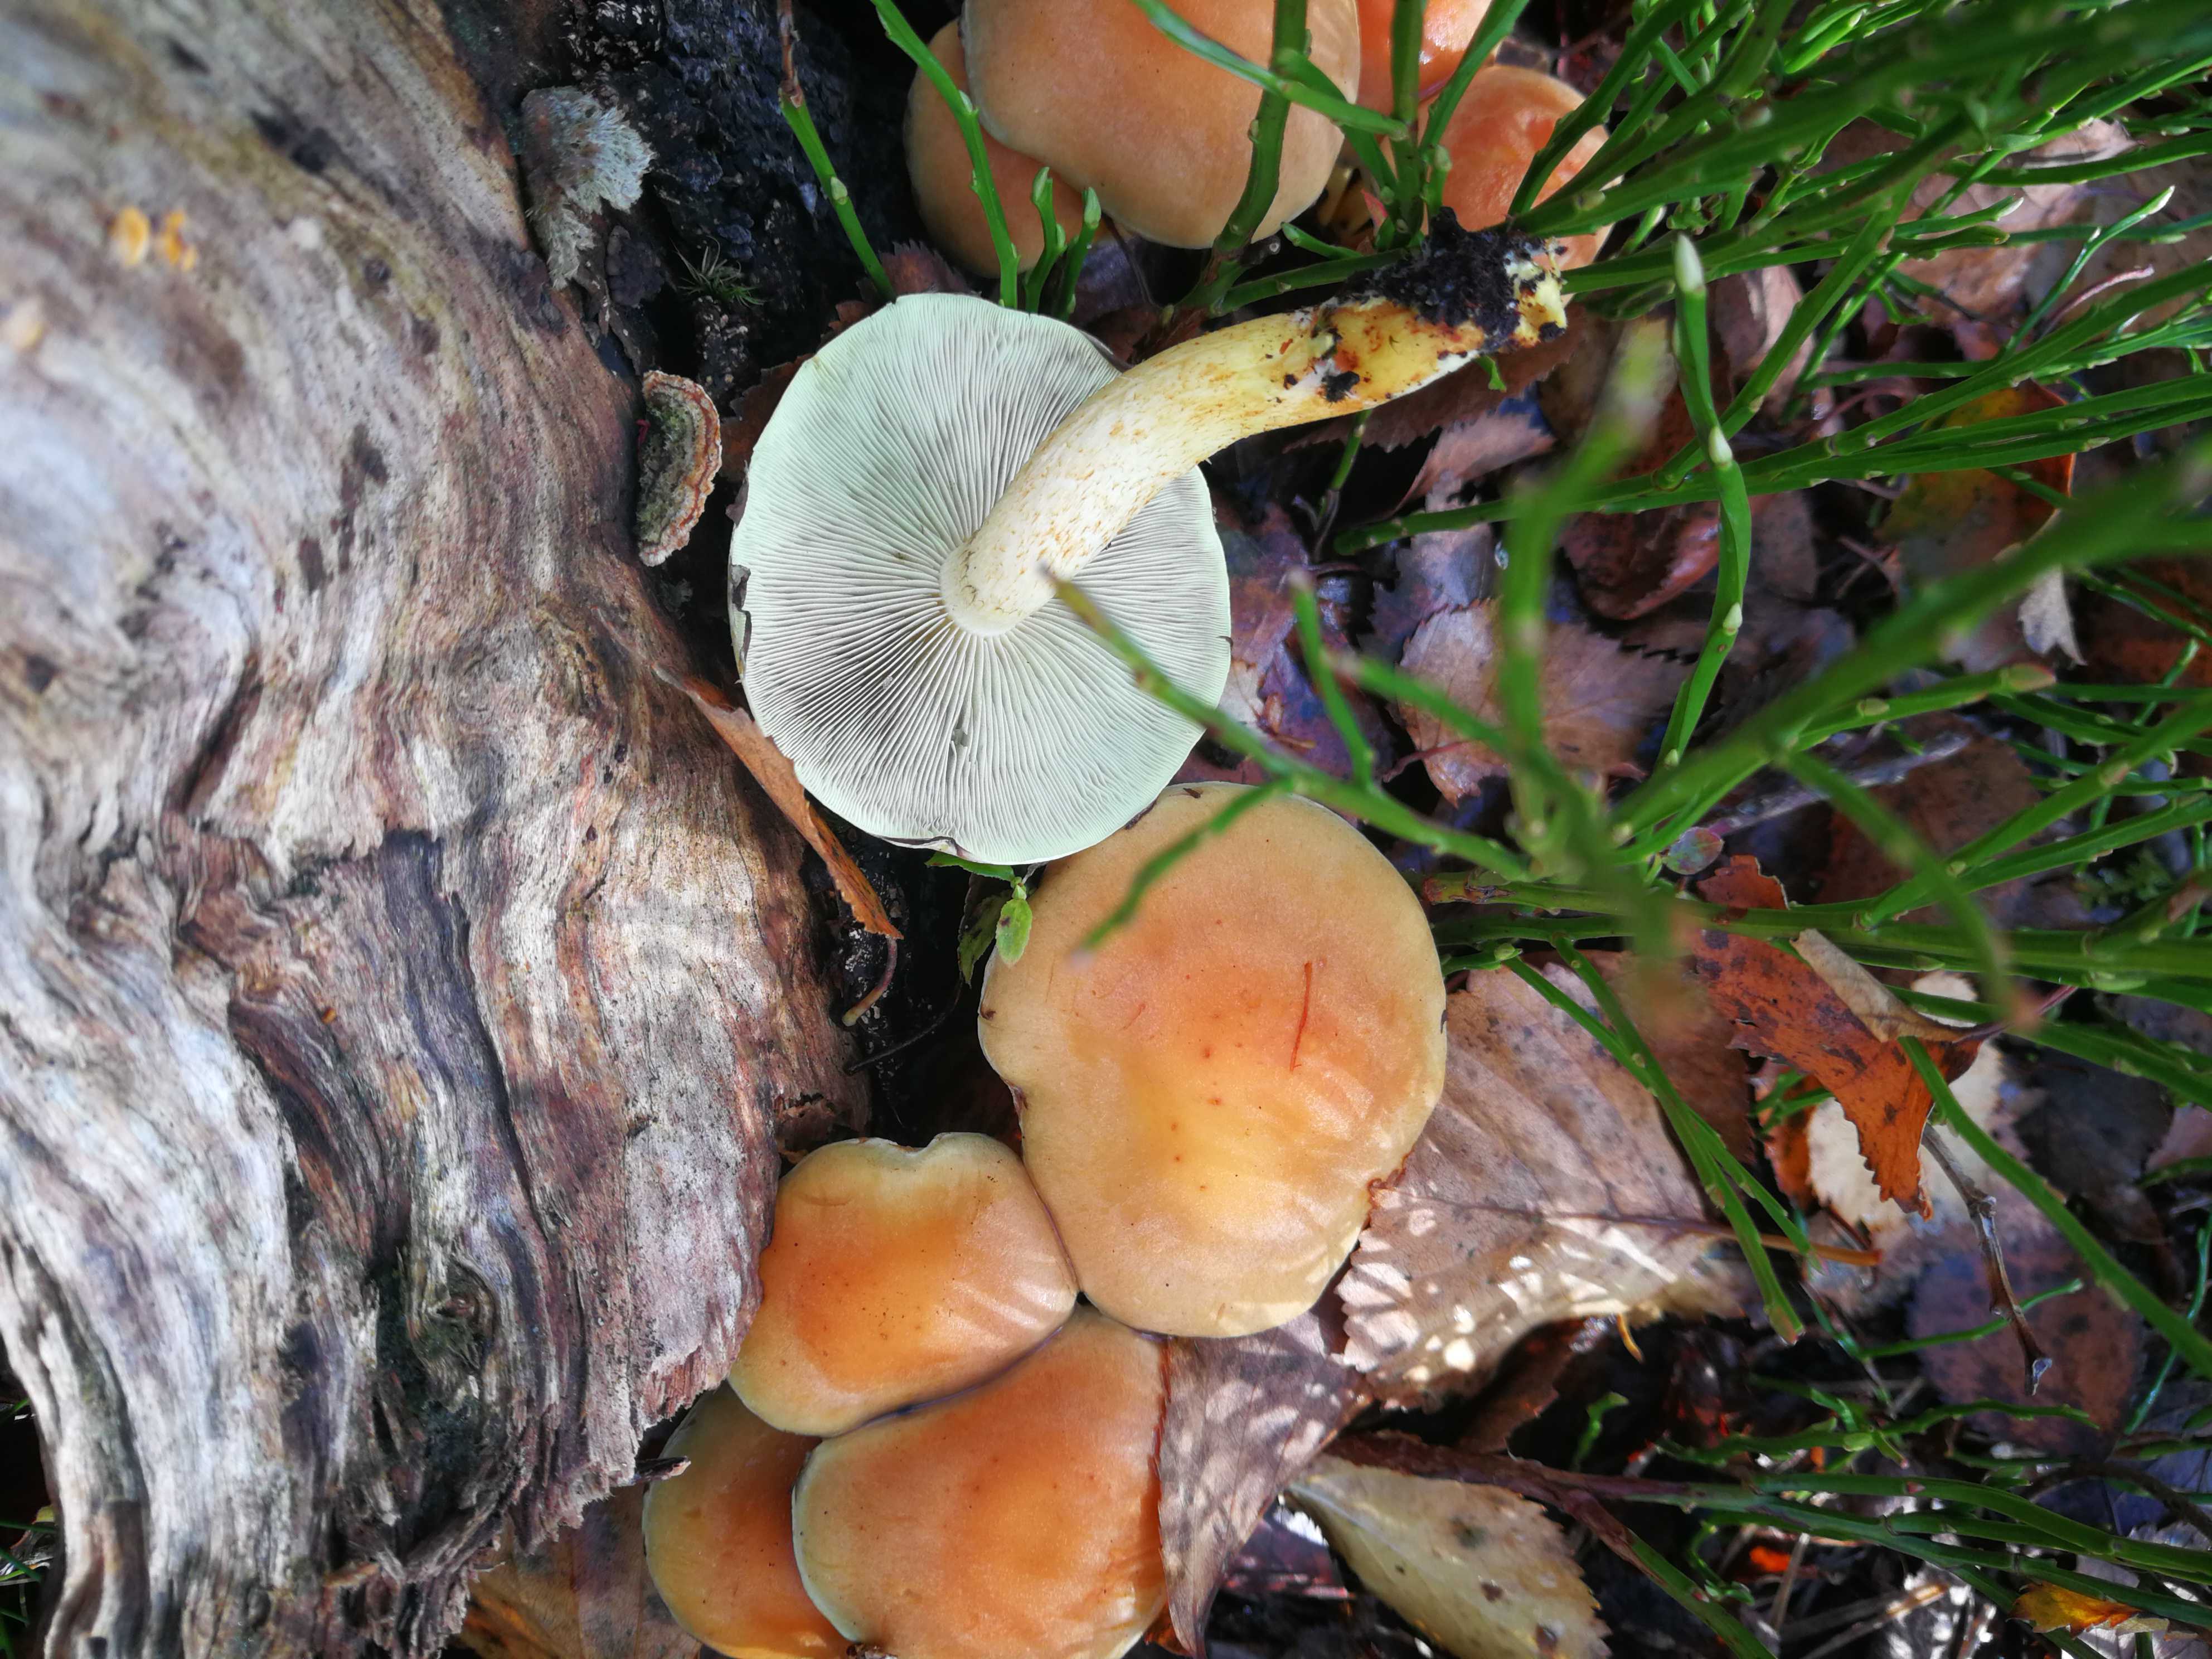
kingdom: Fungi
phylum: Basidiomycota
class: Agaricomycetes
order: Agaricales
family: Strophariaceae
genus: Hypholoma
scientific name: Hypholoma fasciculare
